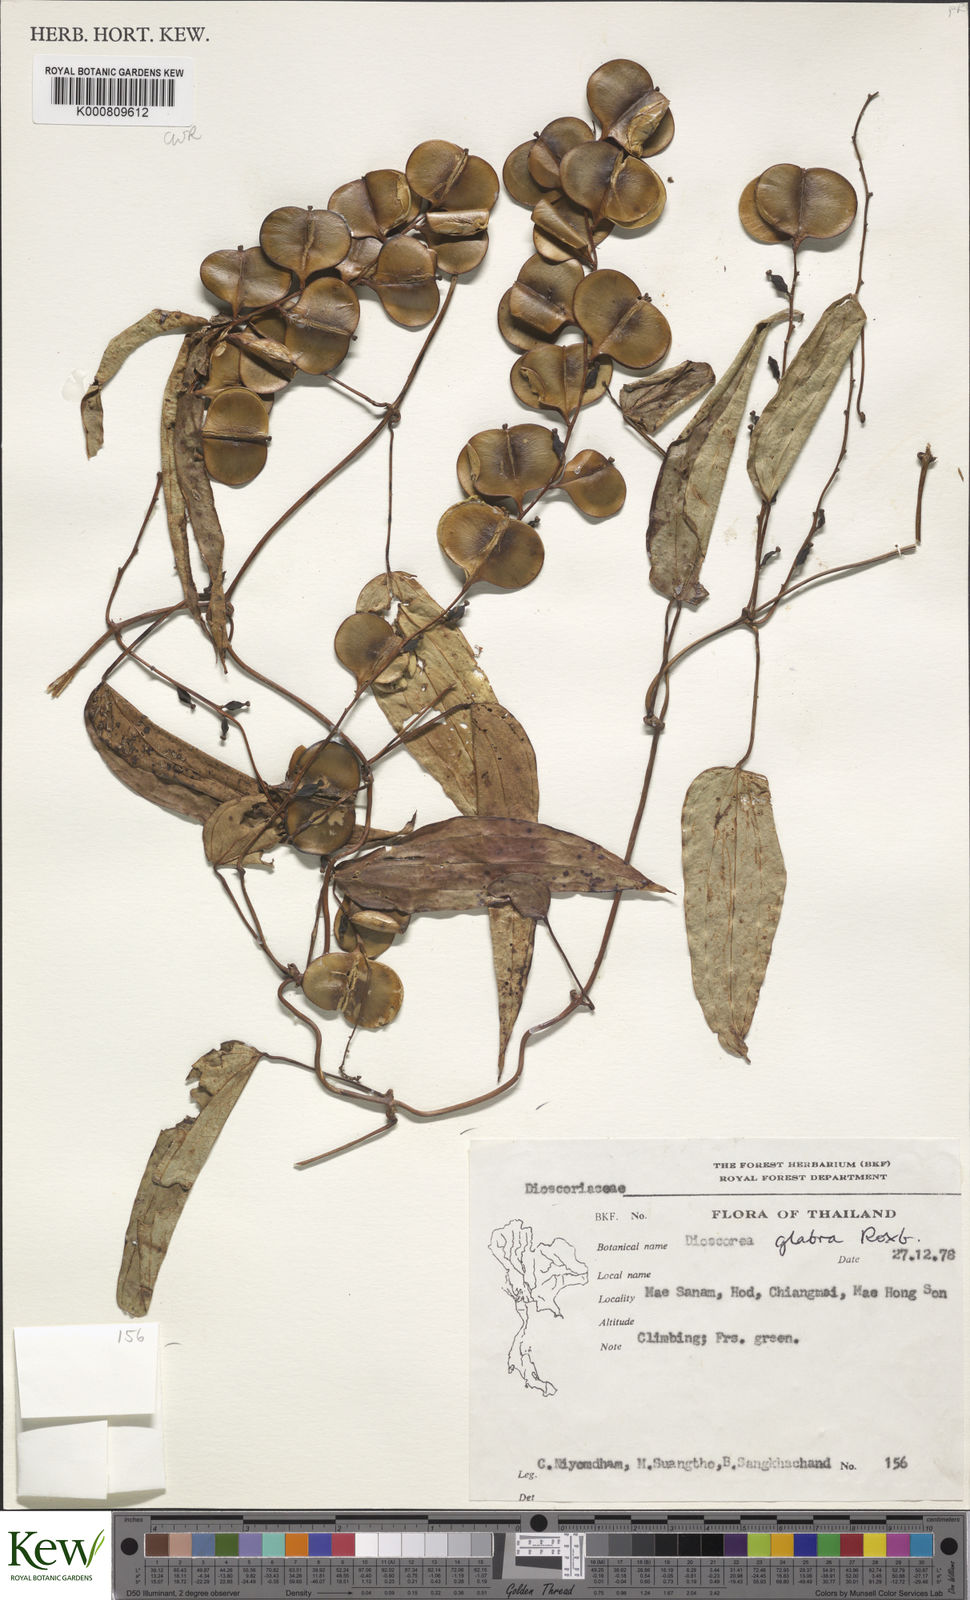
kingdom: Plantae
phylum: Tracheophyta
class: Liliopsida
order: Dioscoreales
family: Dioscoreaceae
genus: Dioscorea
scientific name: Dioscorea glabra
